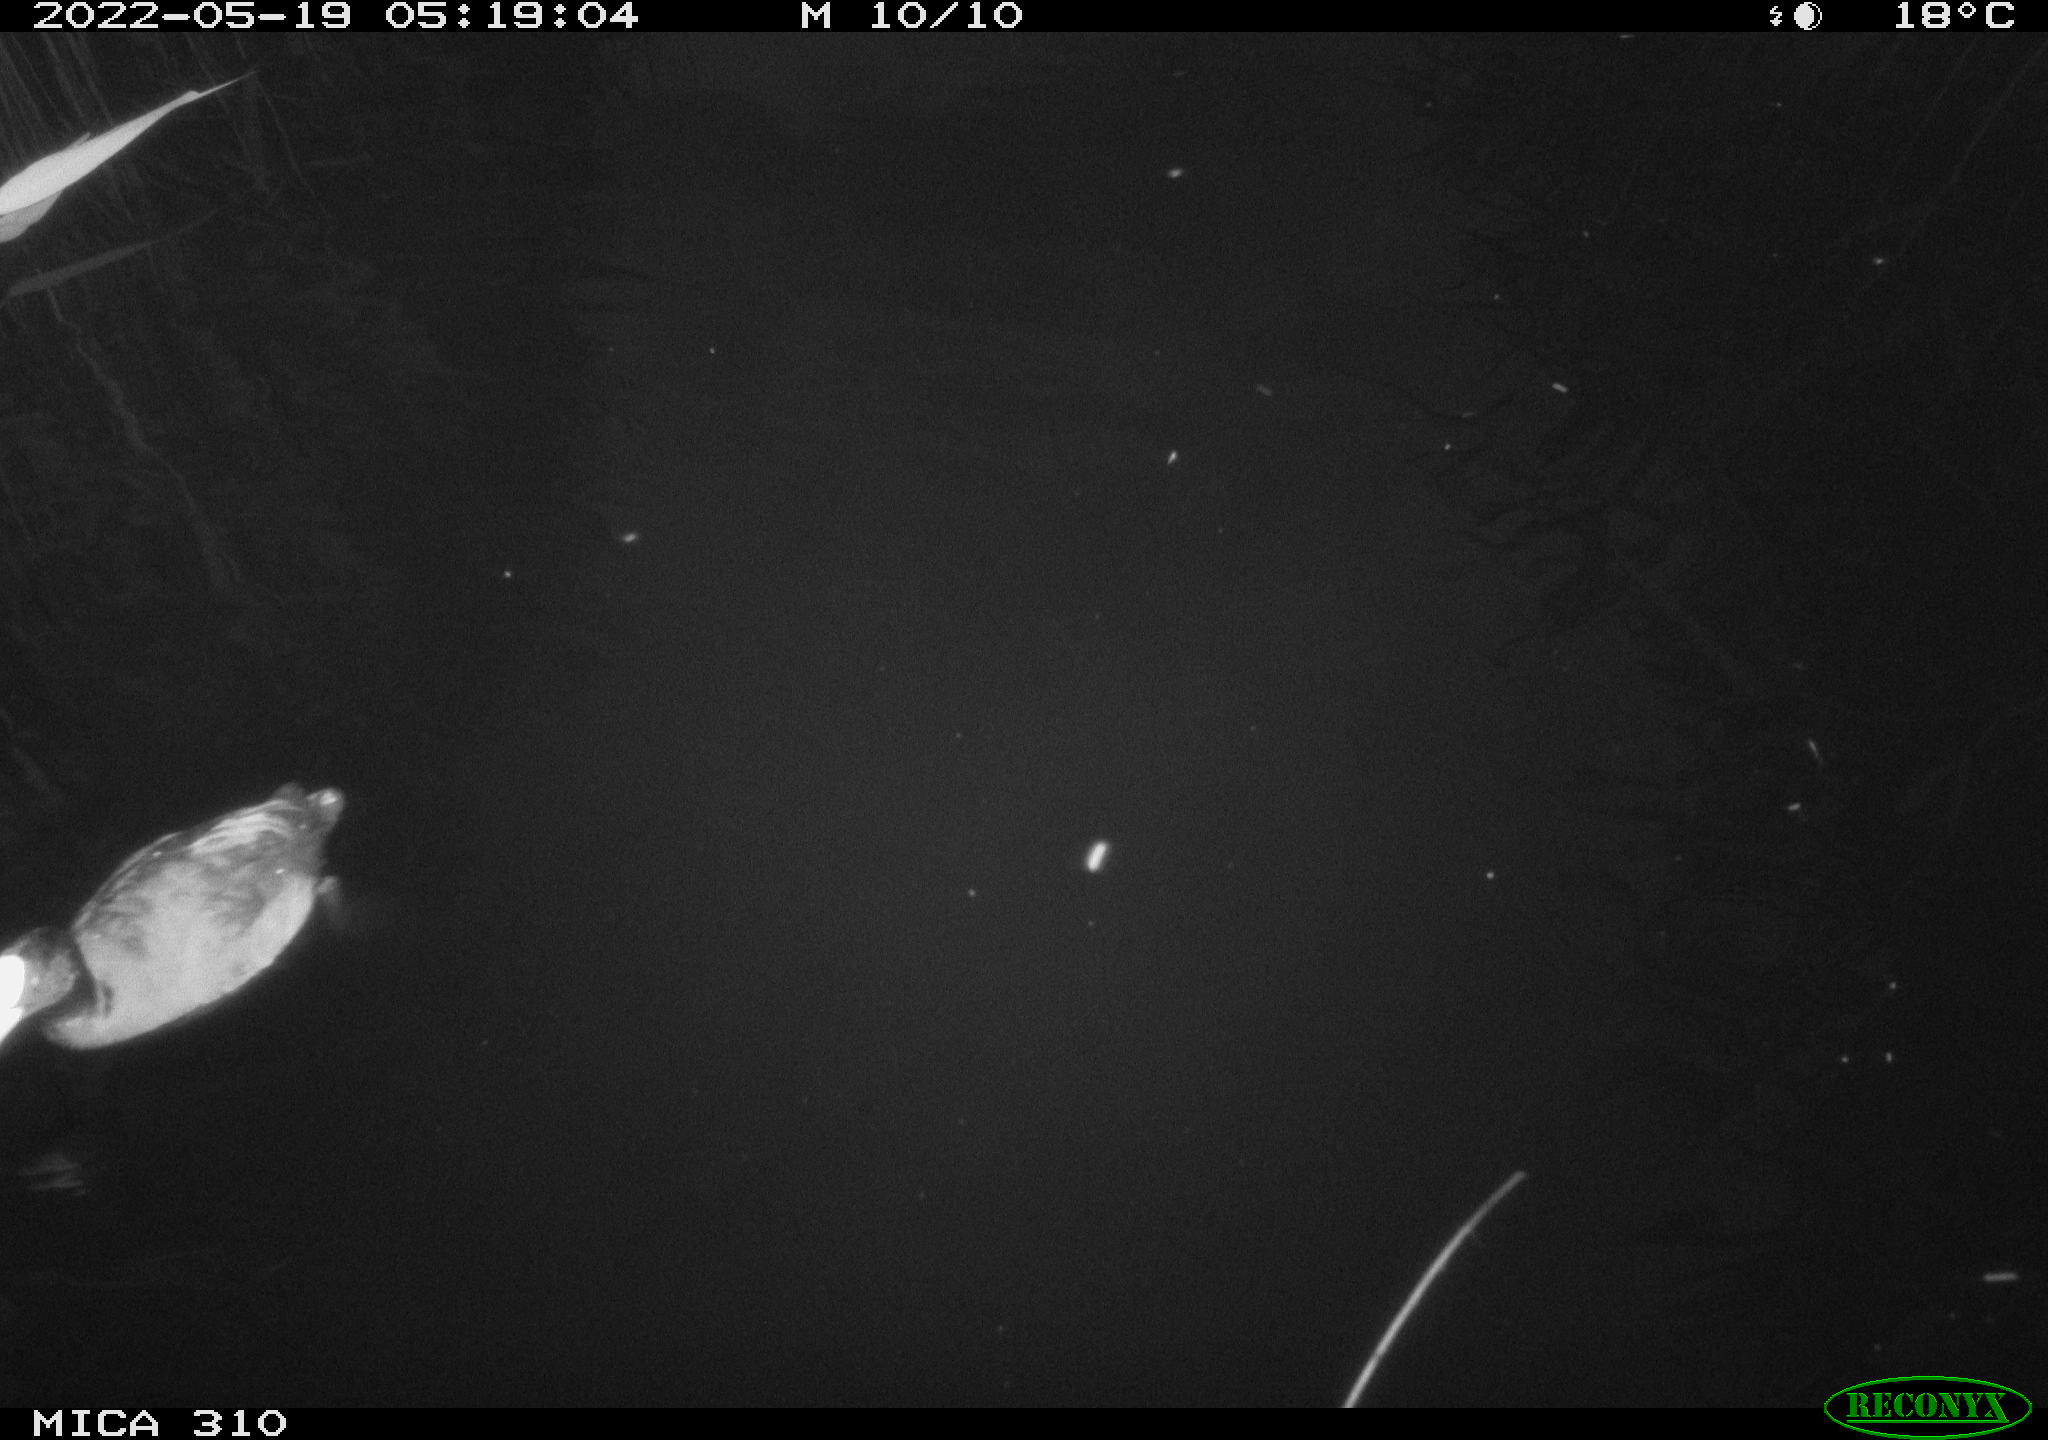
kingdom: Animalia
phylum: Chordata
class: Aves
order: Pelecaniformes
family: Ardeidae
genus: Ardea
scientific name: Ardea
